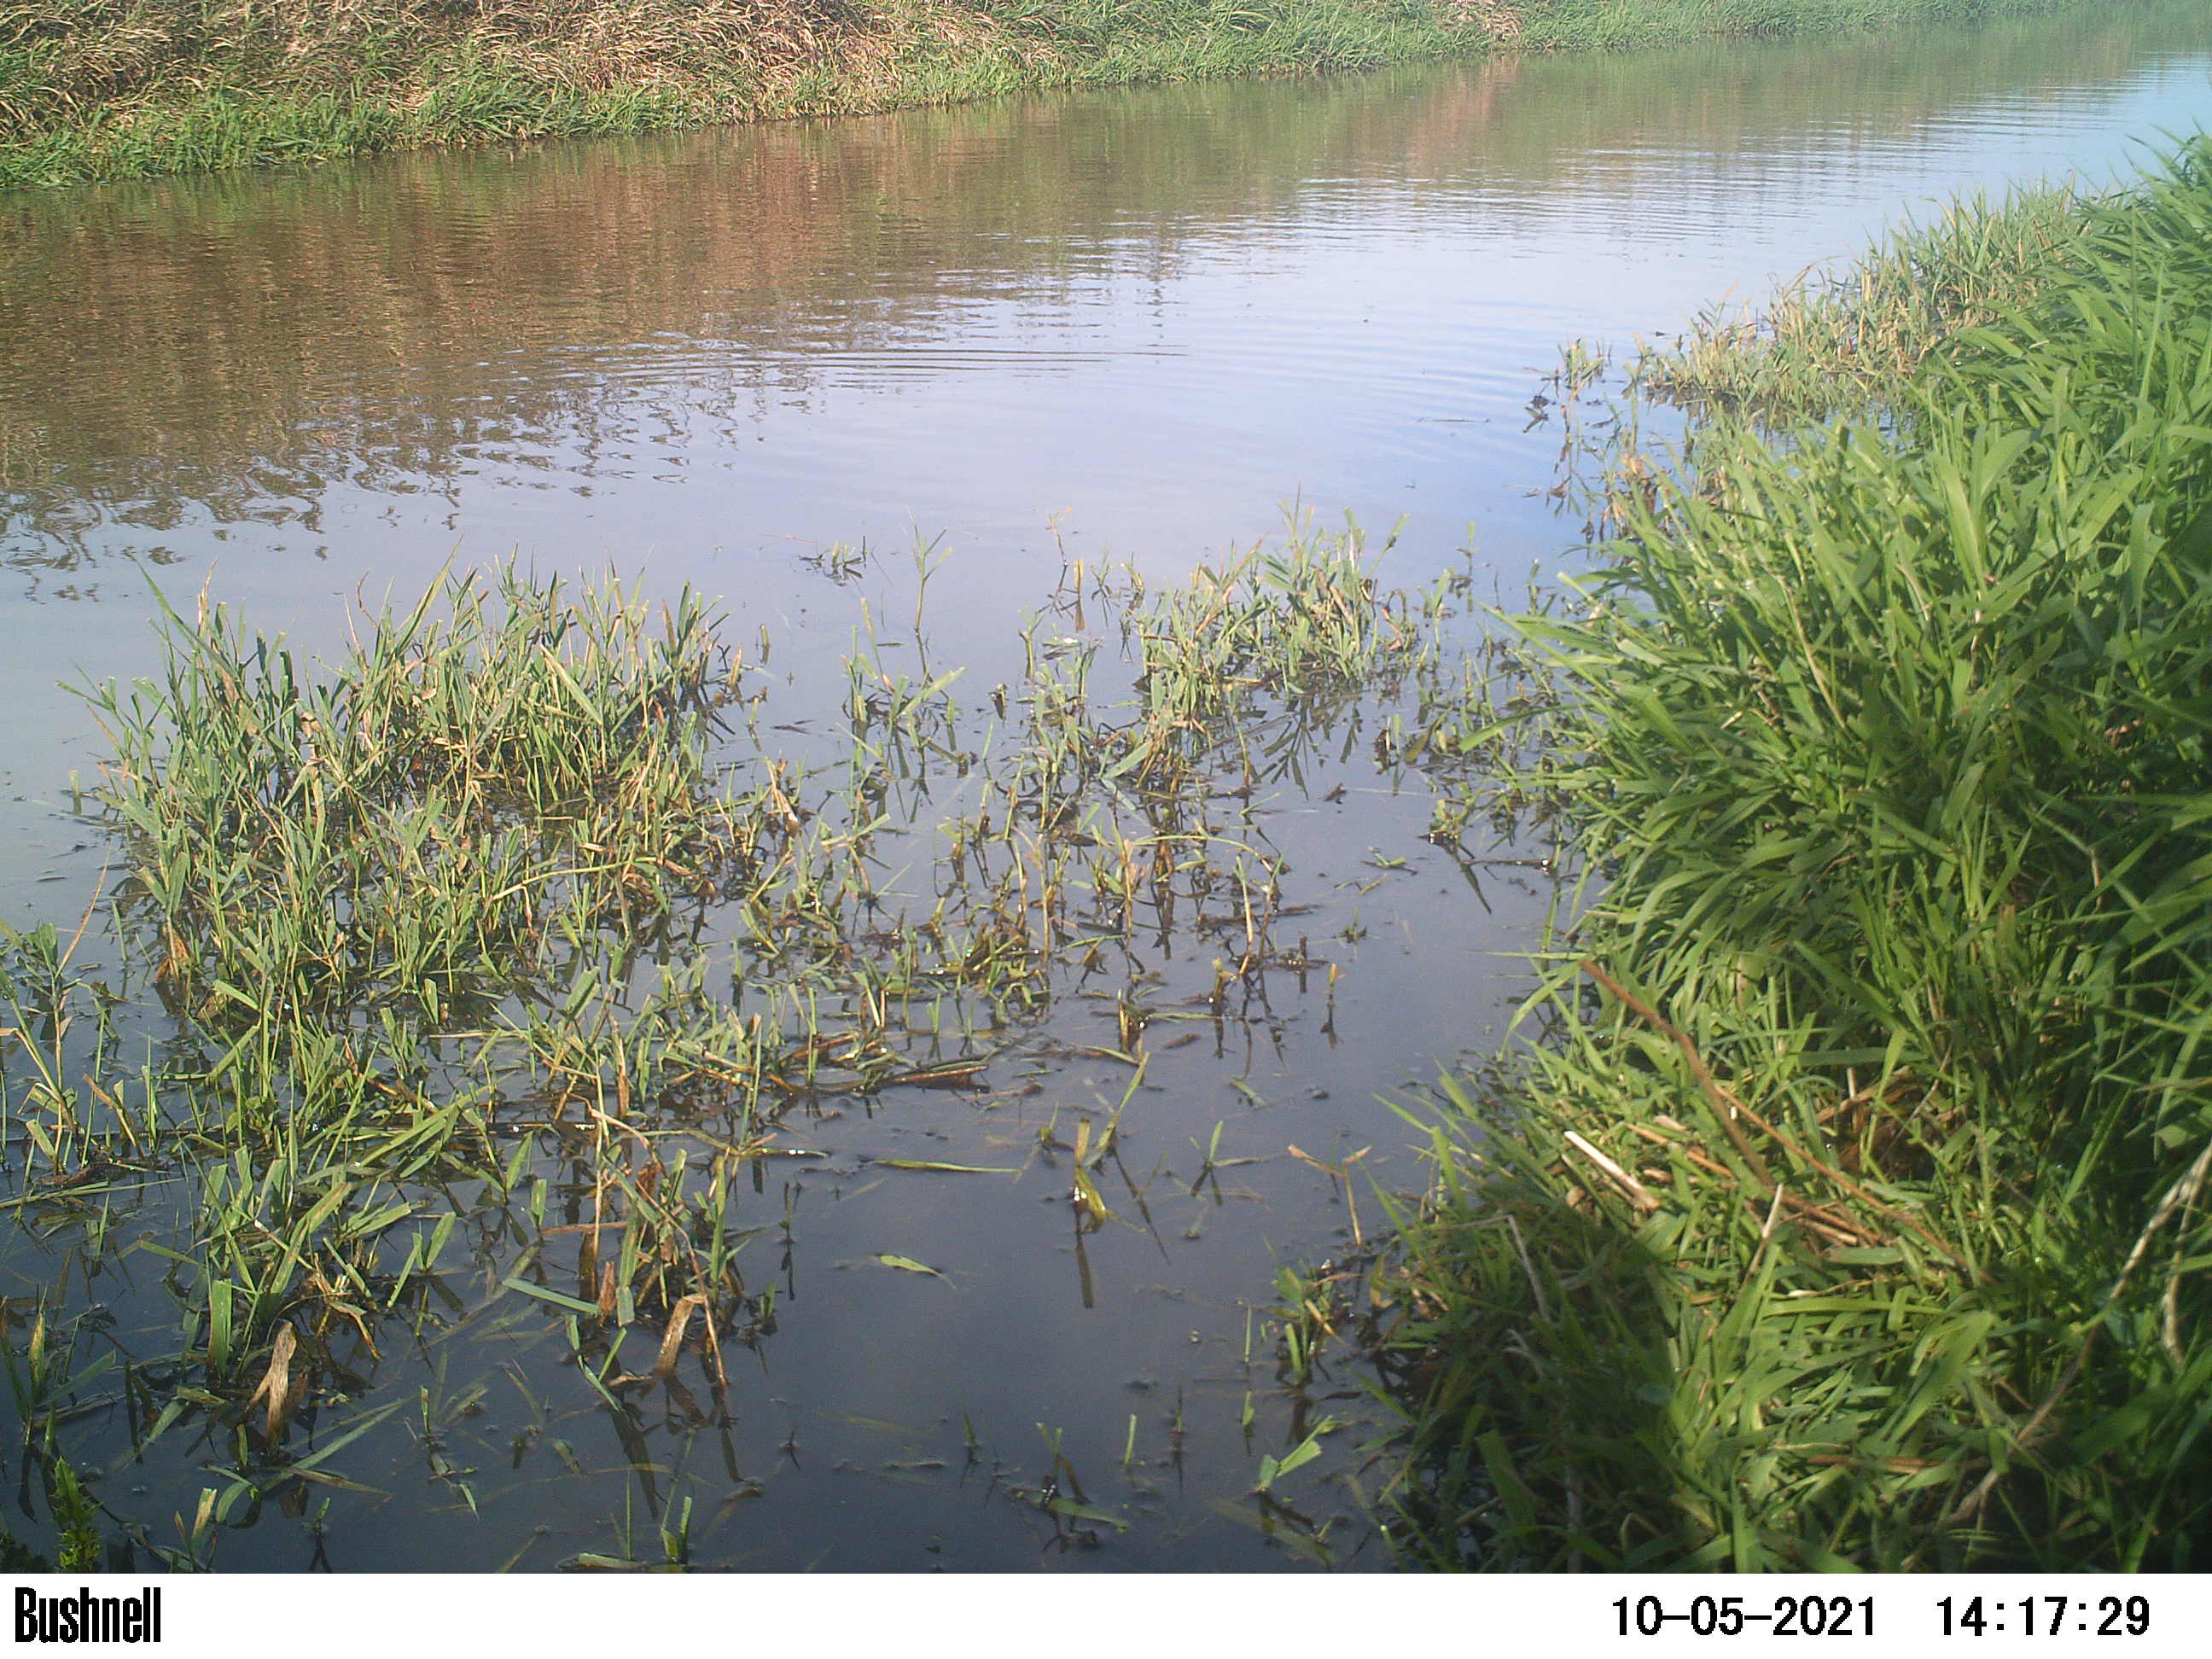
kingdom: Animalia
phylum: Chordata
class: Aves
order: Gruiformes
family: Rallidae
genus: Fulica
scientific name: Fulica atra
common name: Eurasian coot
